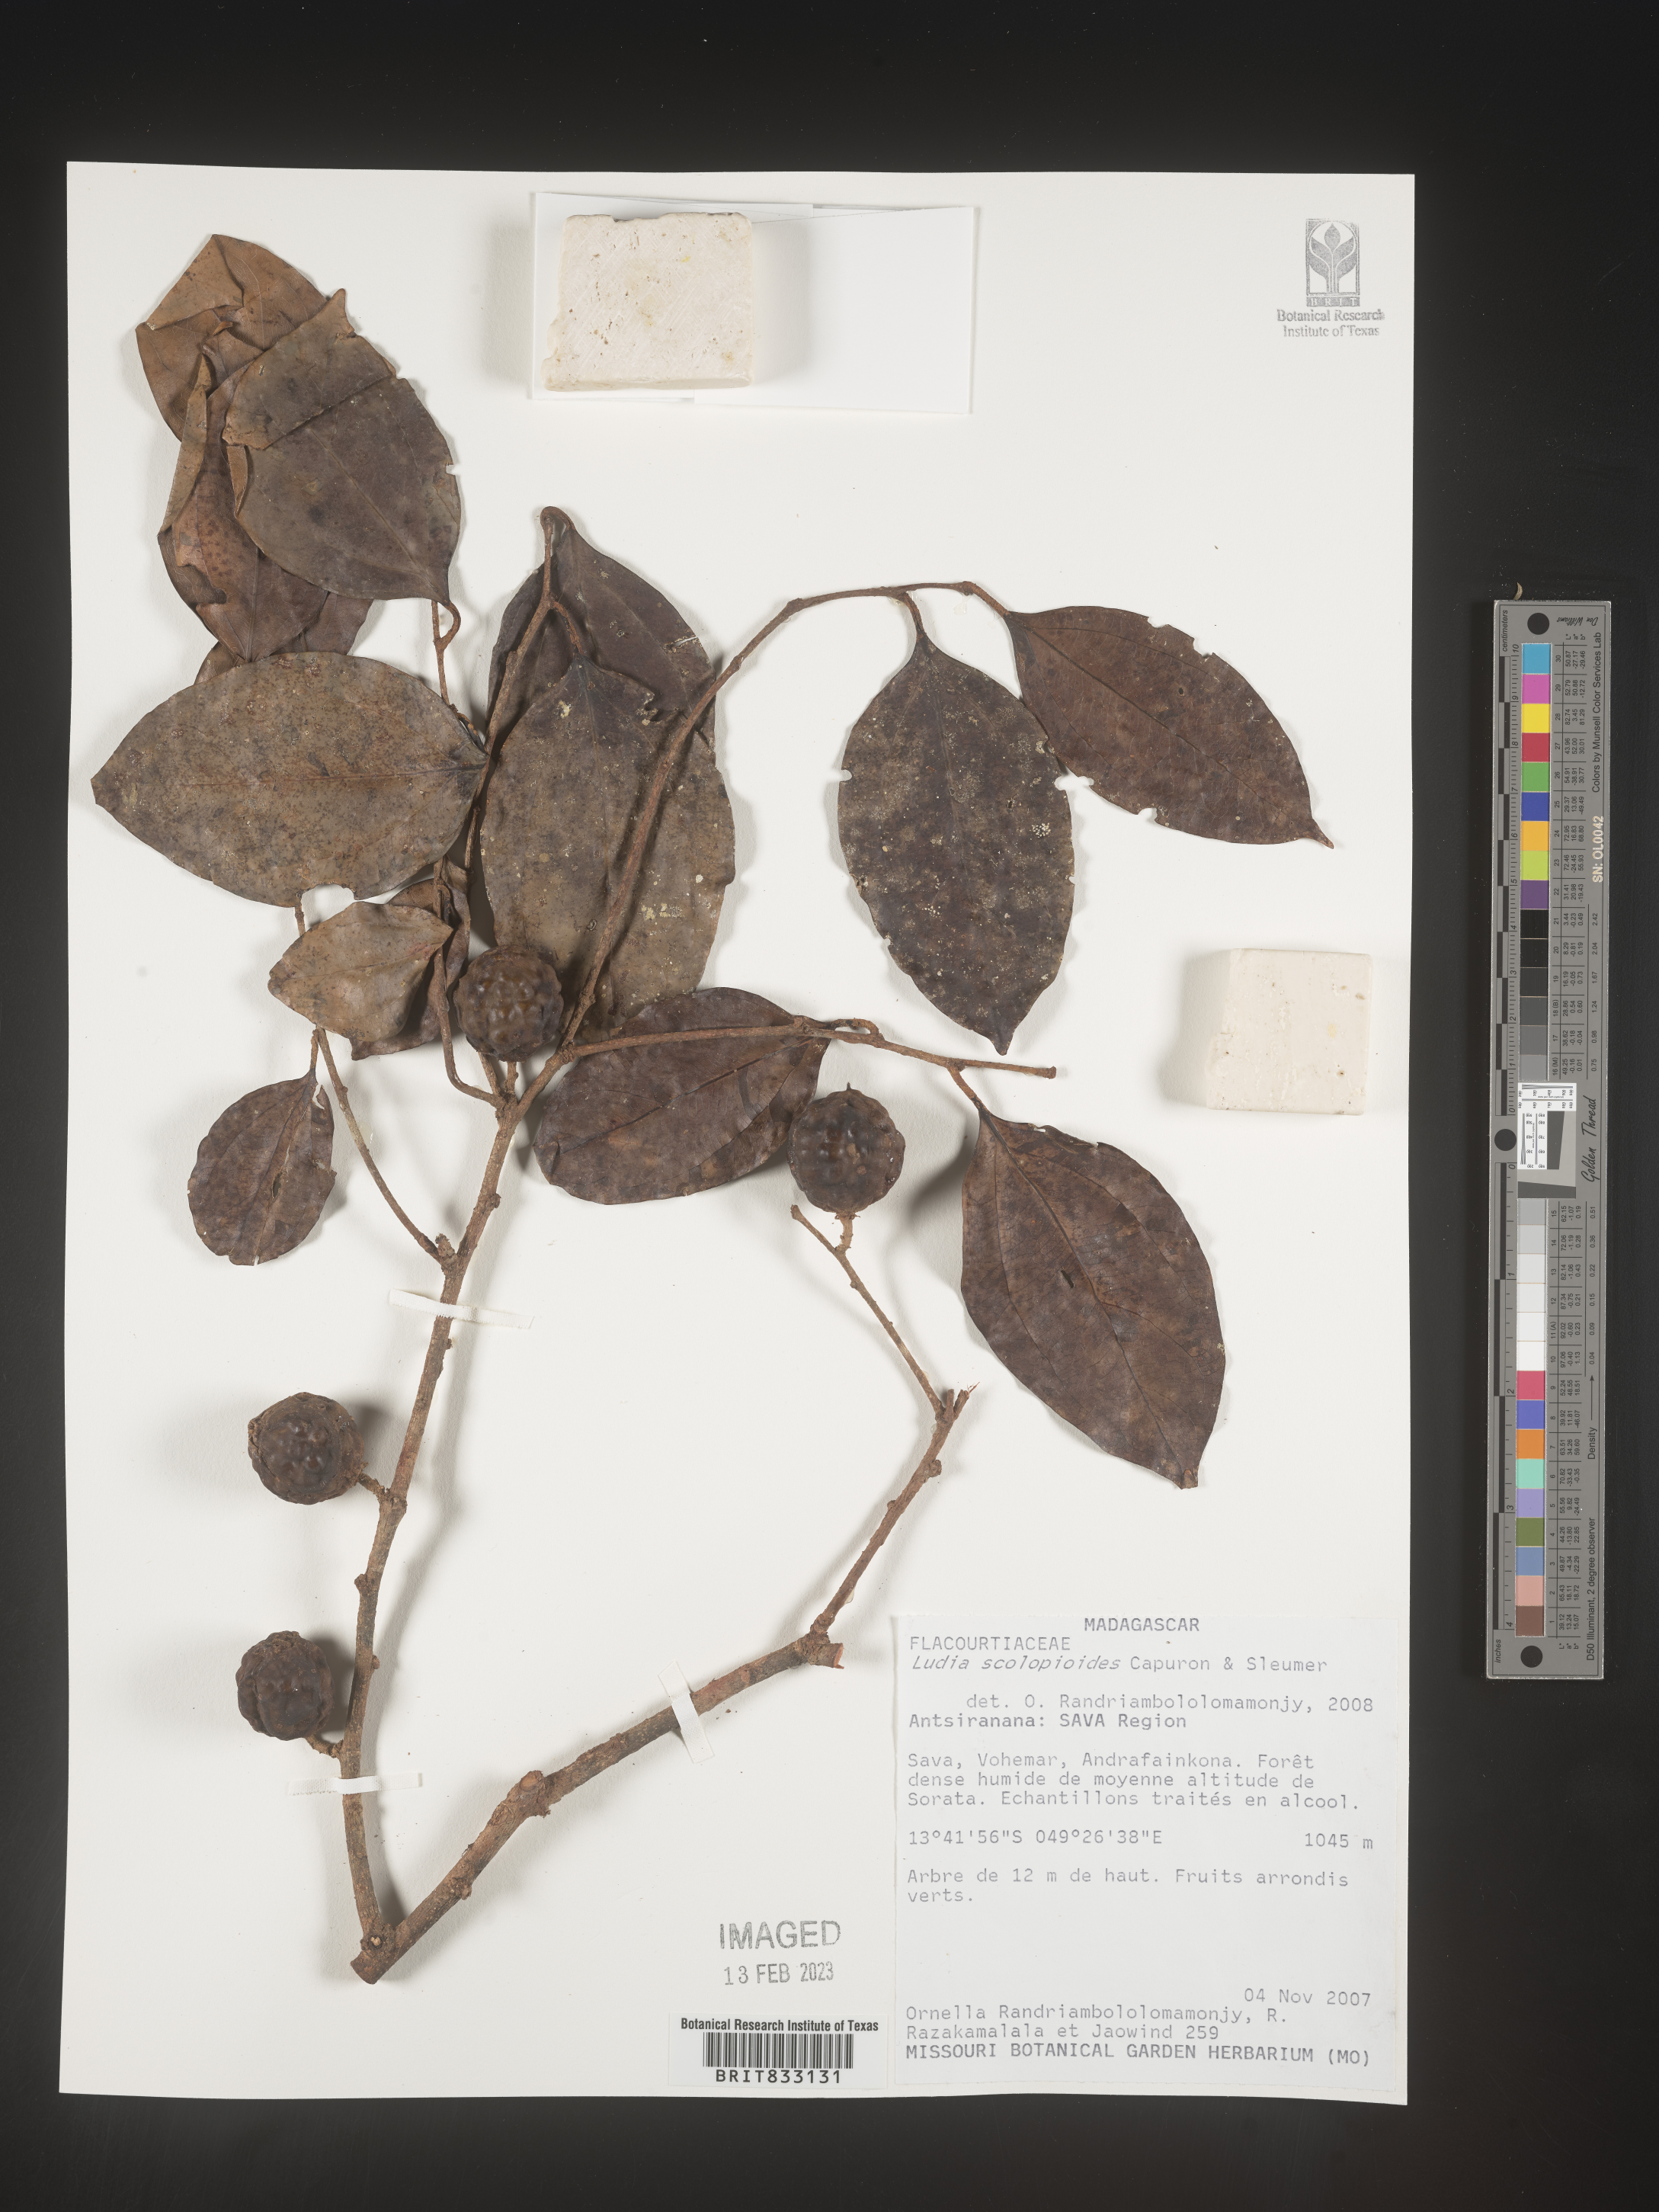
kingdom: Plantae
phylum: Tracheophyta
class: Magnoliopsida
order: Malpighiales
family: Salicaceae
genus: Ludia
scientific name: Ludia scolopioides
